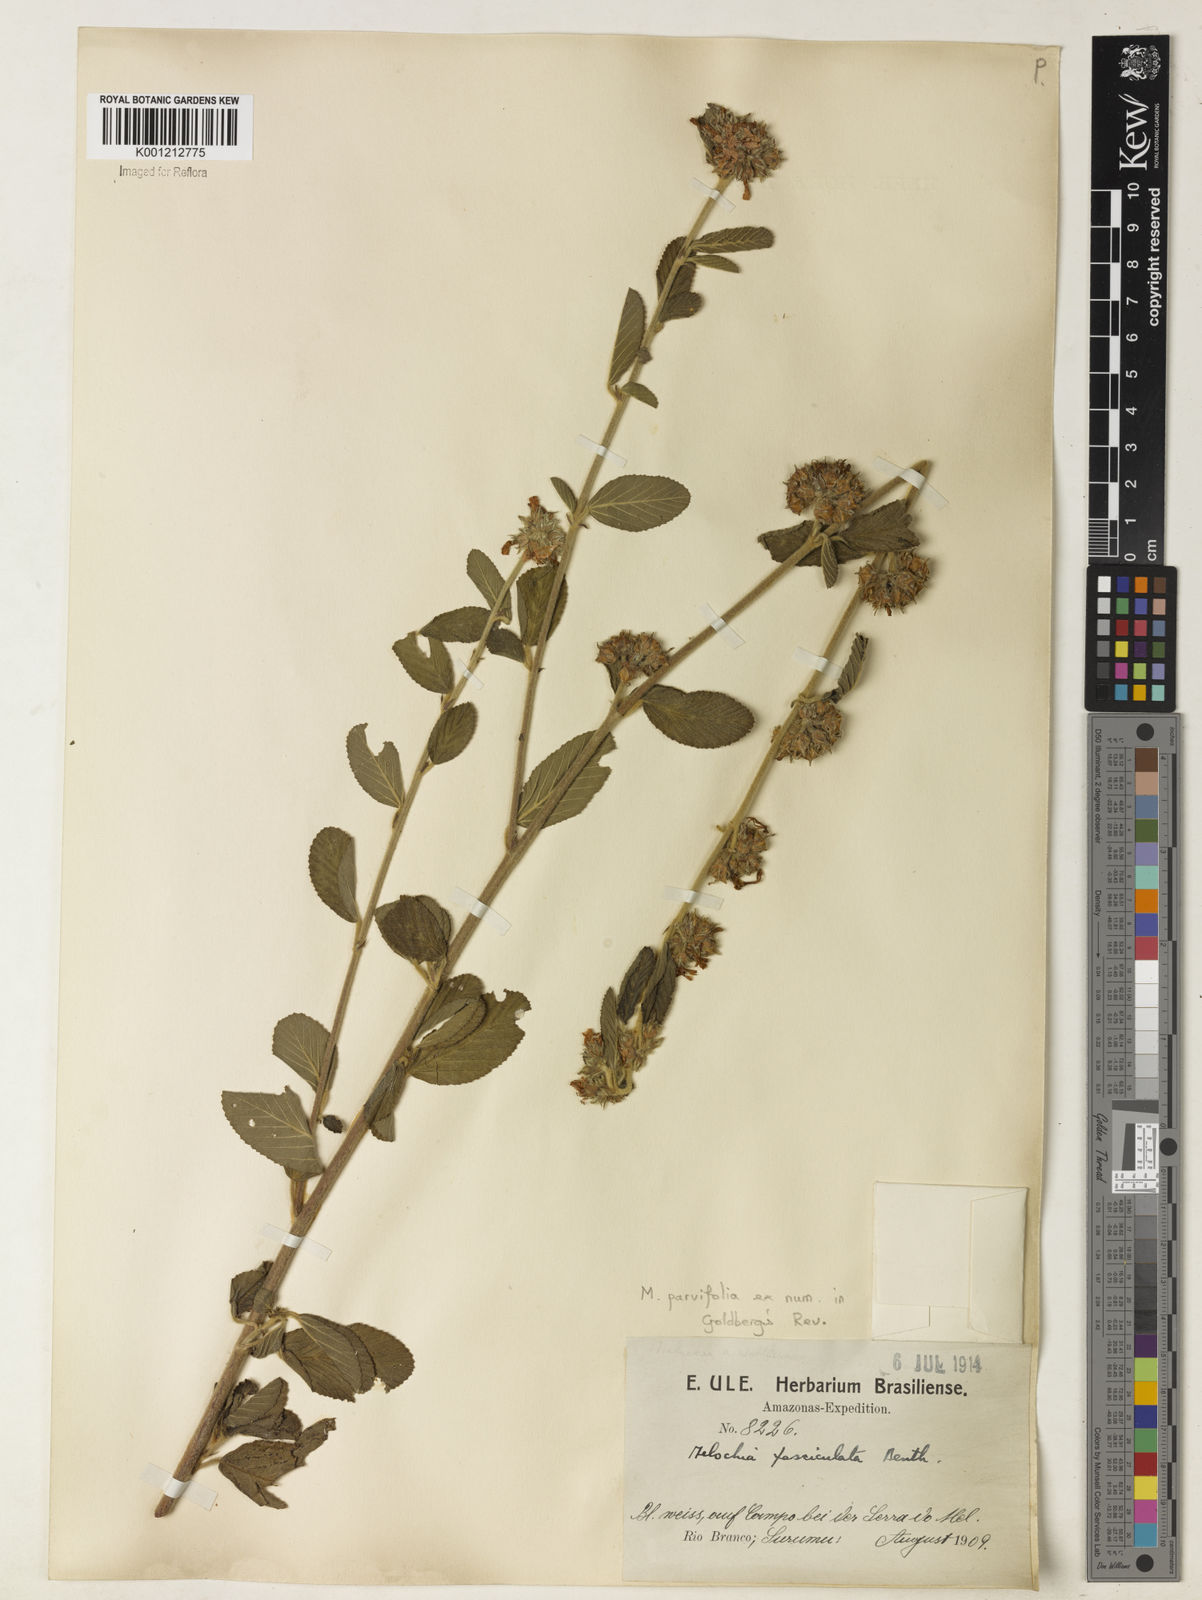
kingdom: Plantae
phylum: Tracheophyta
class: Magnoliopsida
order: Malvales
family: Malvaceae
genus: Melochia
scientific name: Melochia
